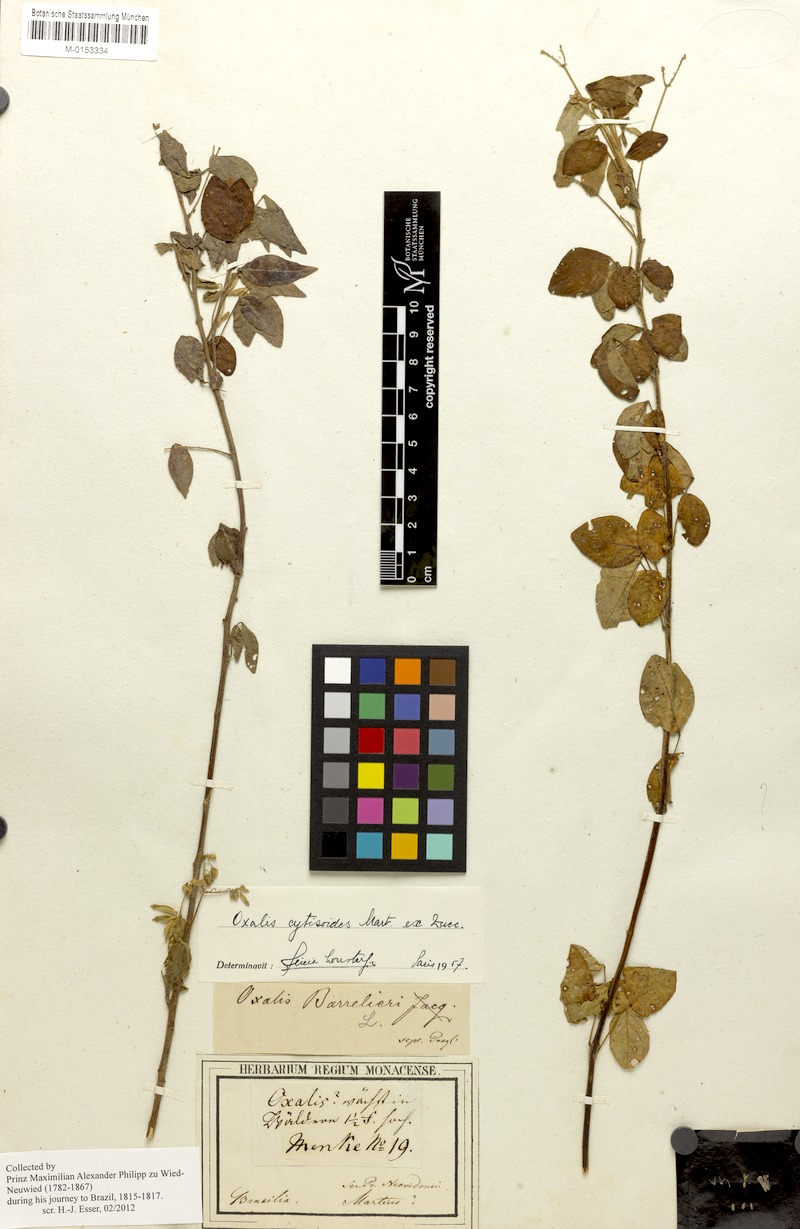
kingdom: Plantae
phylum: Tracheophyta
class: Magnoliopsida
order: Oxalidales
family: Oxalidaceae
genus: Oxalis
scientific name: Oxalis cytisoides
